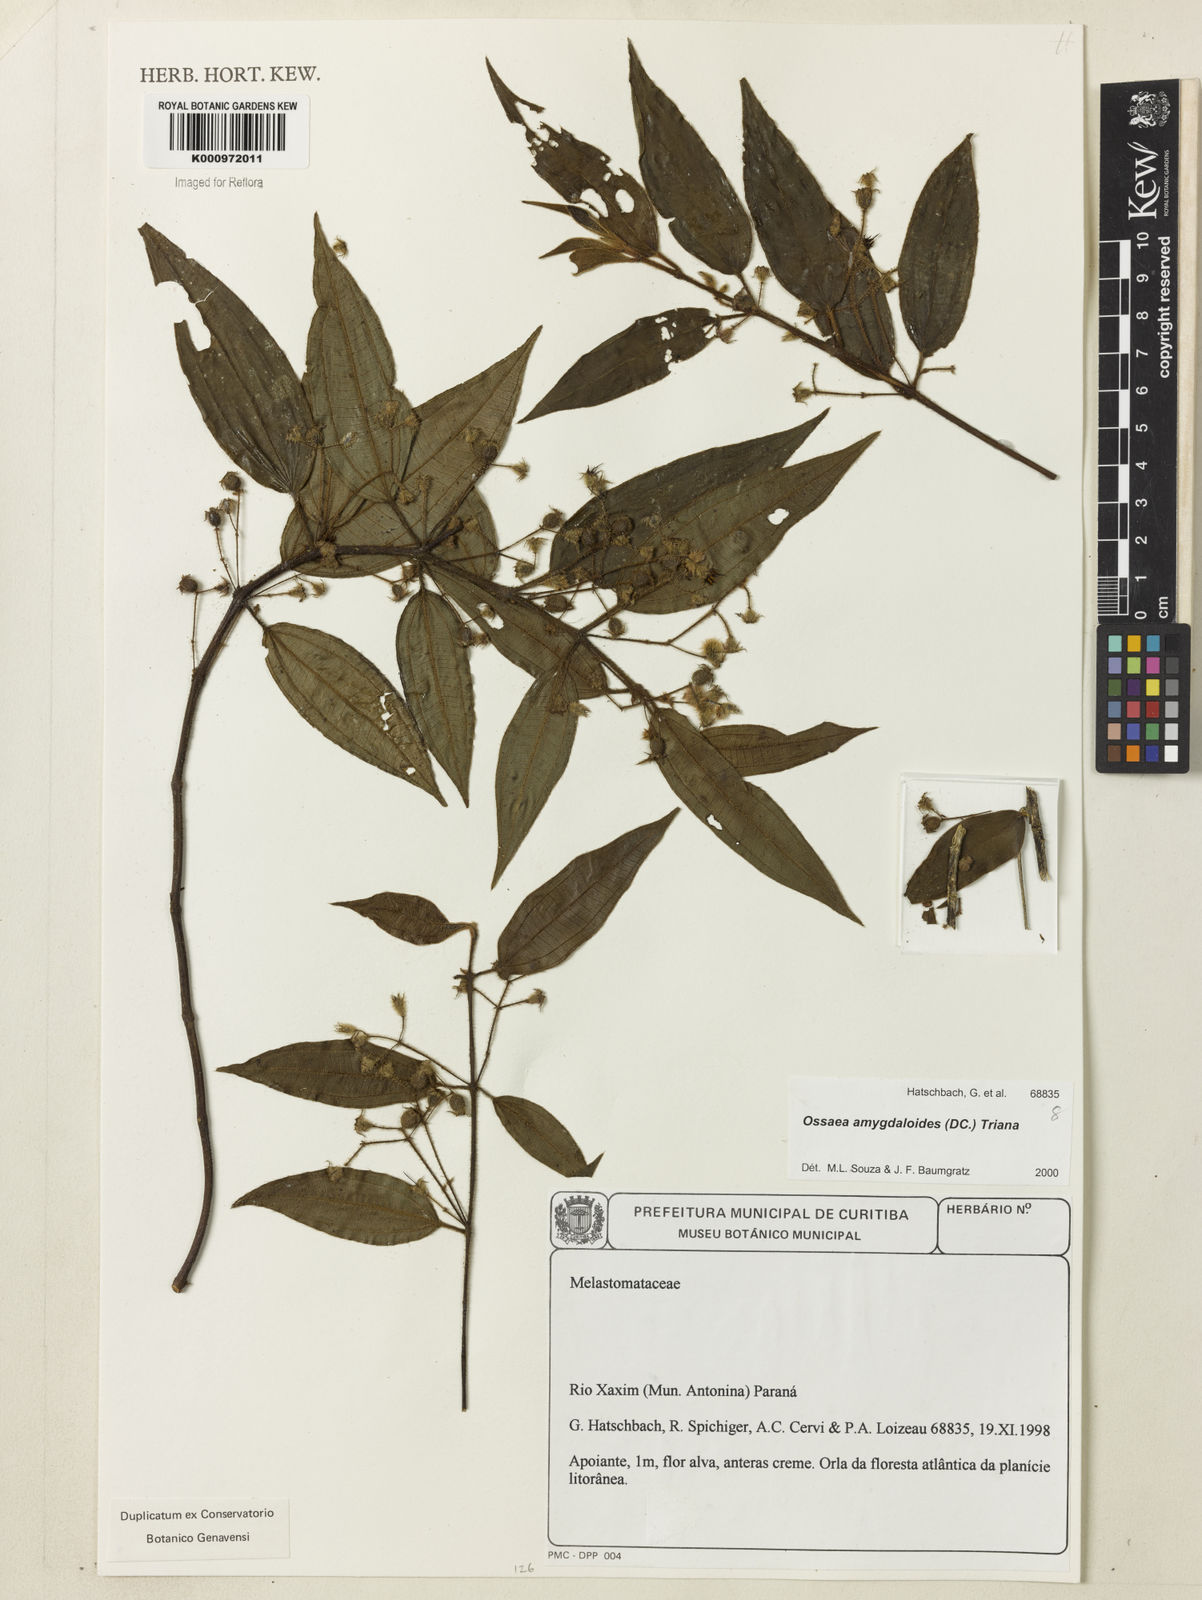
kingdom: Plantae
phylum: Tracheophyta
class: Magnoliopsida
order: Myrtales
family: Melastomataceae
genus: Miconia
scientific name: Miconia amygdaloides
